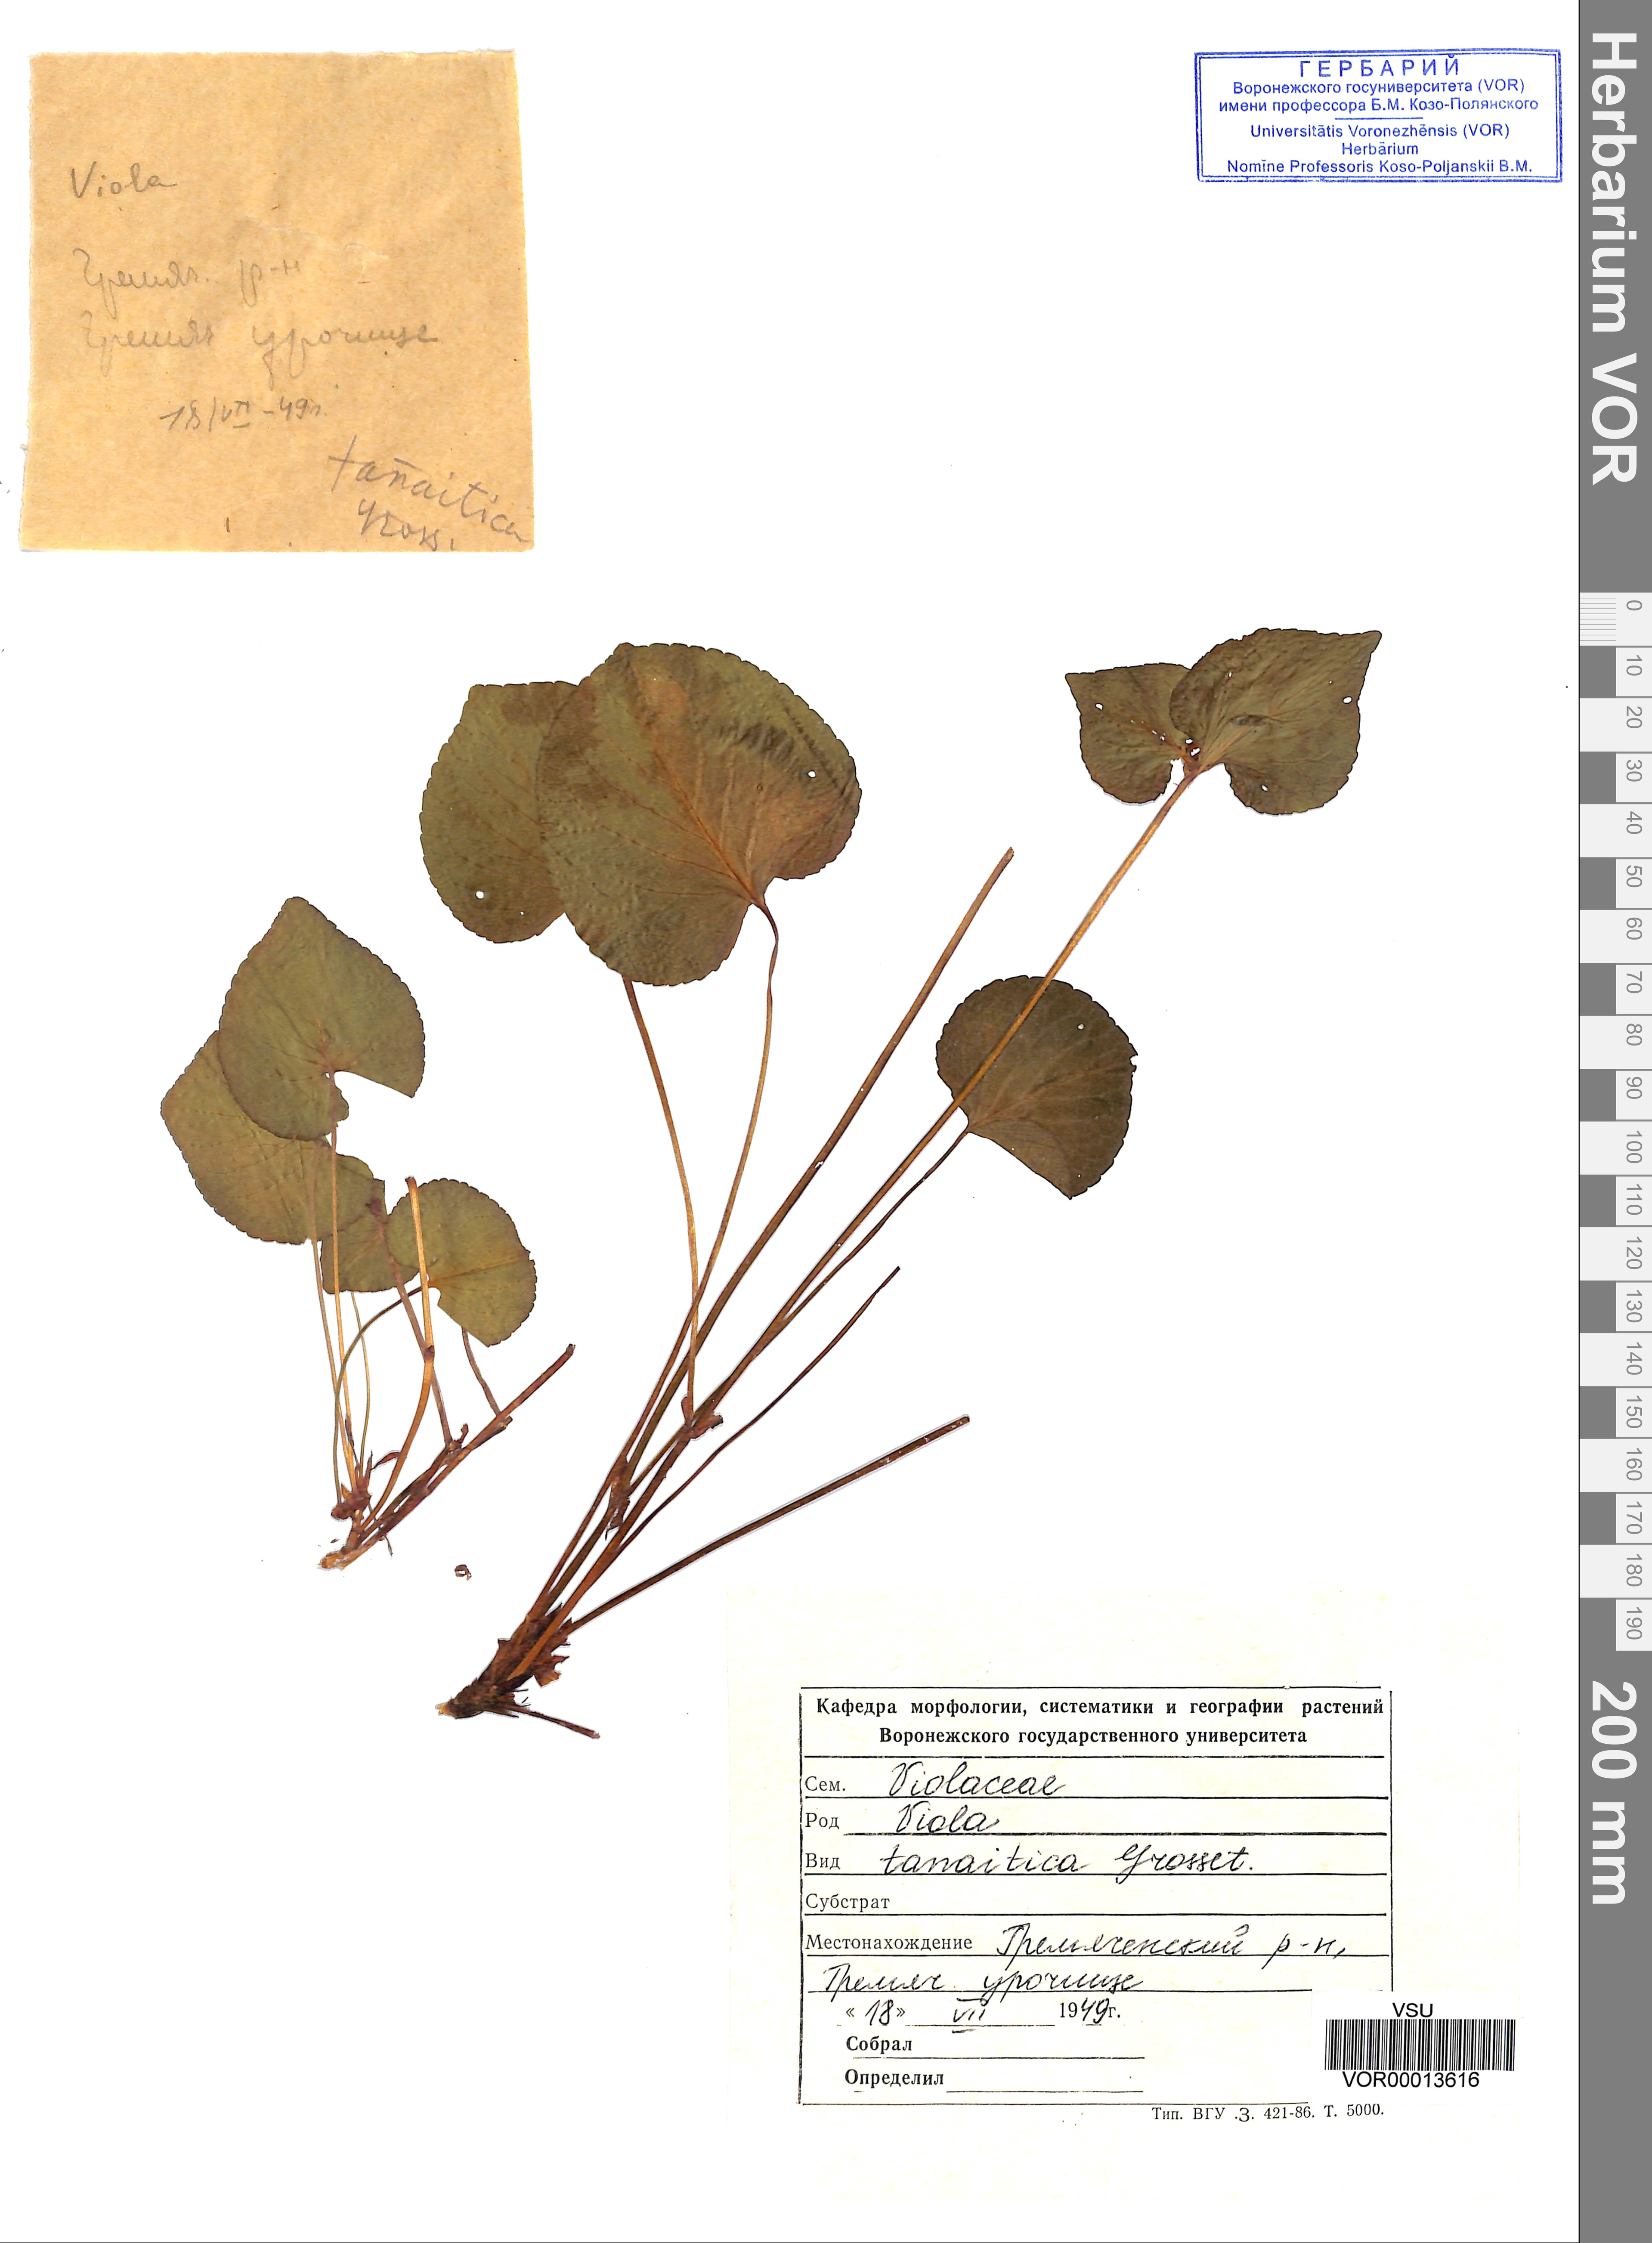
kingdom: Plantae
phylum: Tracheophyta
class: Magnoliopsida
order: Malpighiales
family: Violaceae
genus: Viola
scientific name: Viola tanaitica
